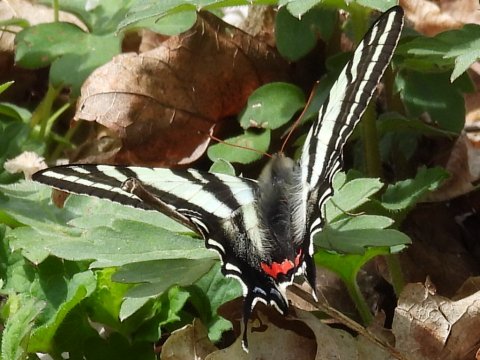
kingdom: Animalia
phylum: Arthropoda
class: Insecta
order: Lepidoptera
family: Papilionidae
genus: Protographium
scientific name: Protographium marcellus
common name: Zebra Swallowtail
